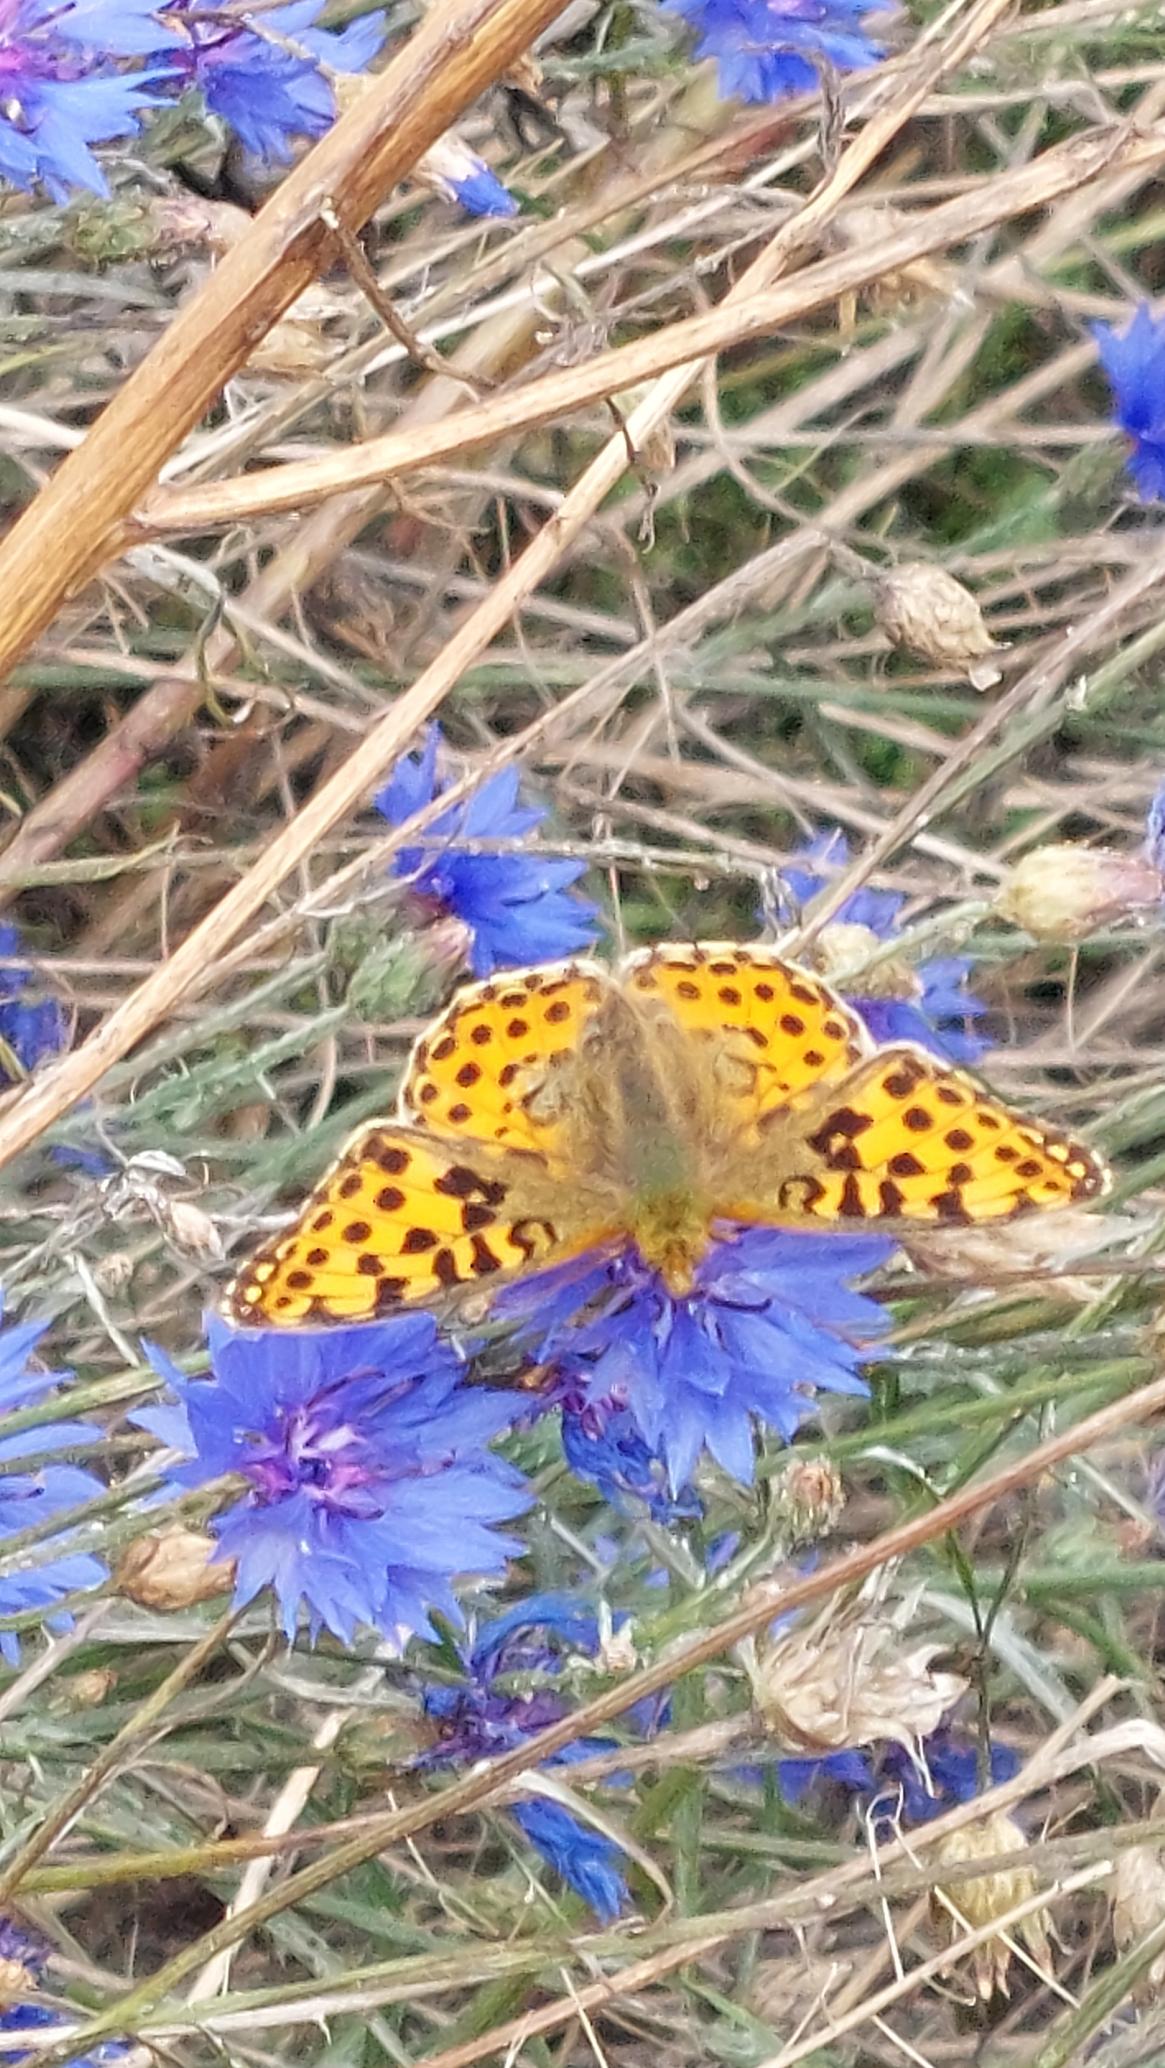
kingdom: Animalia
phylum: Arthropoda
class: Insecta
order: Lepidoptera
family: Nymphalidae
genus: Issoria
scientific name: Issoria lathonia
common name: Storplettet perlemorsommerfugl
